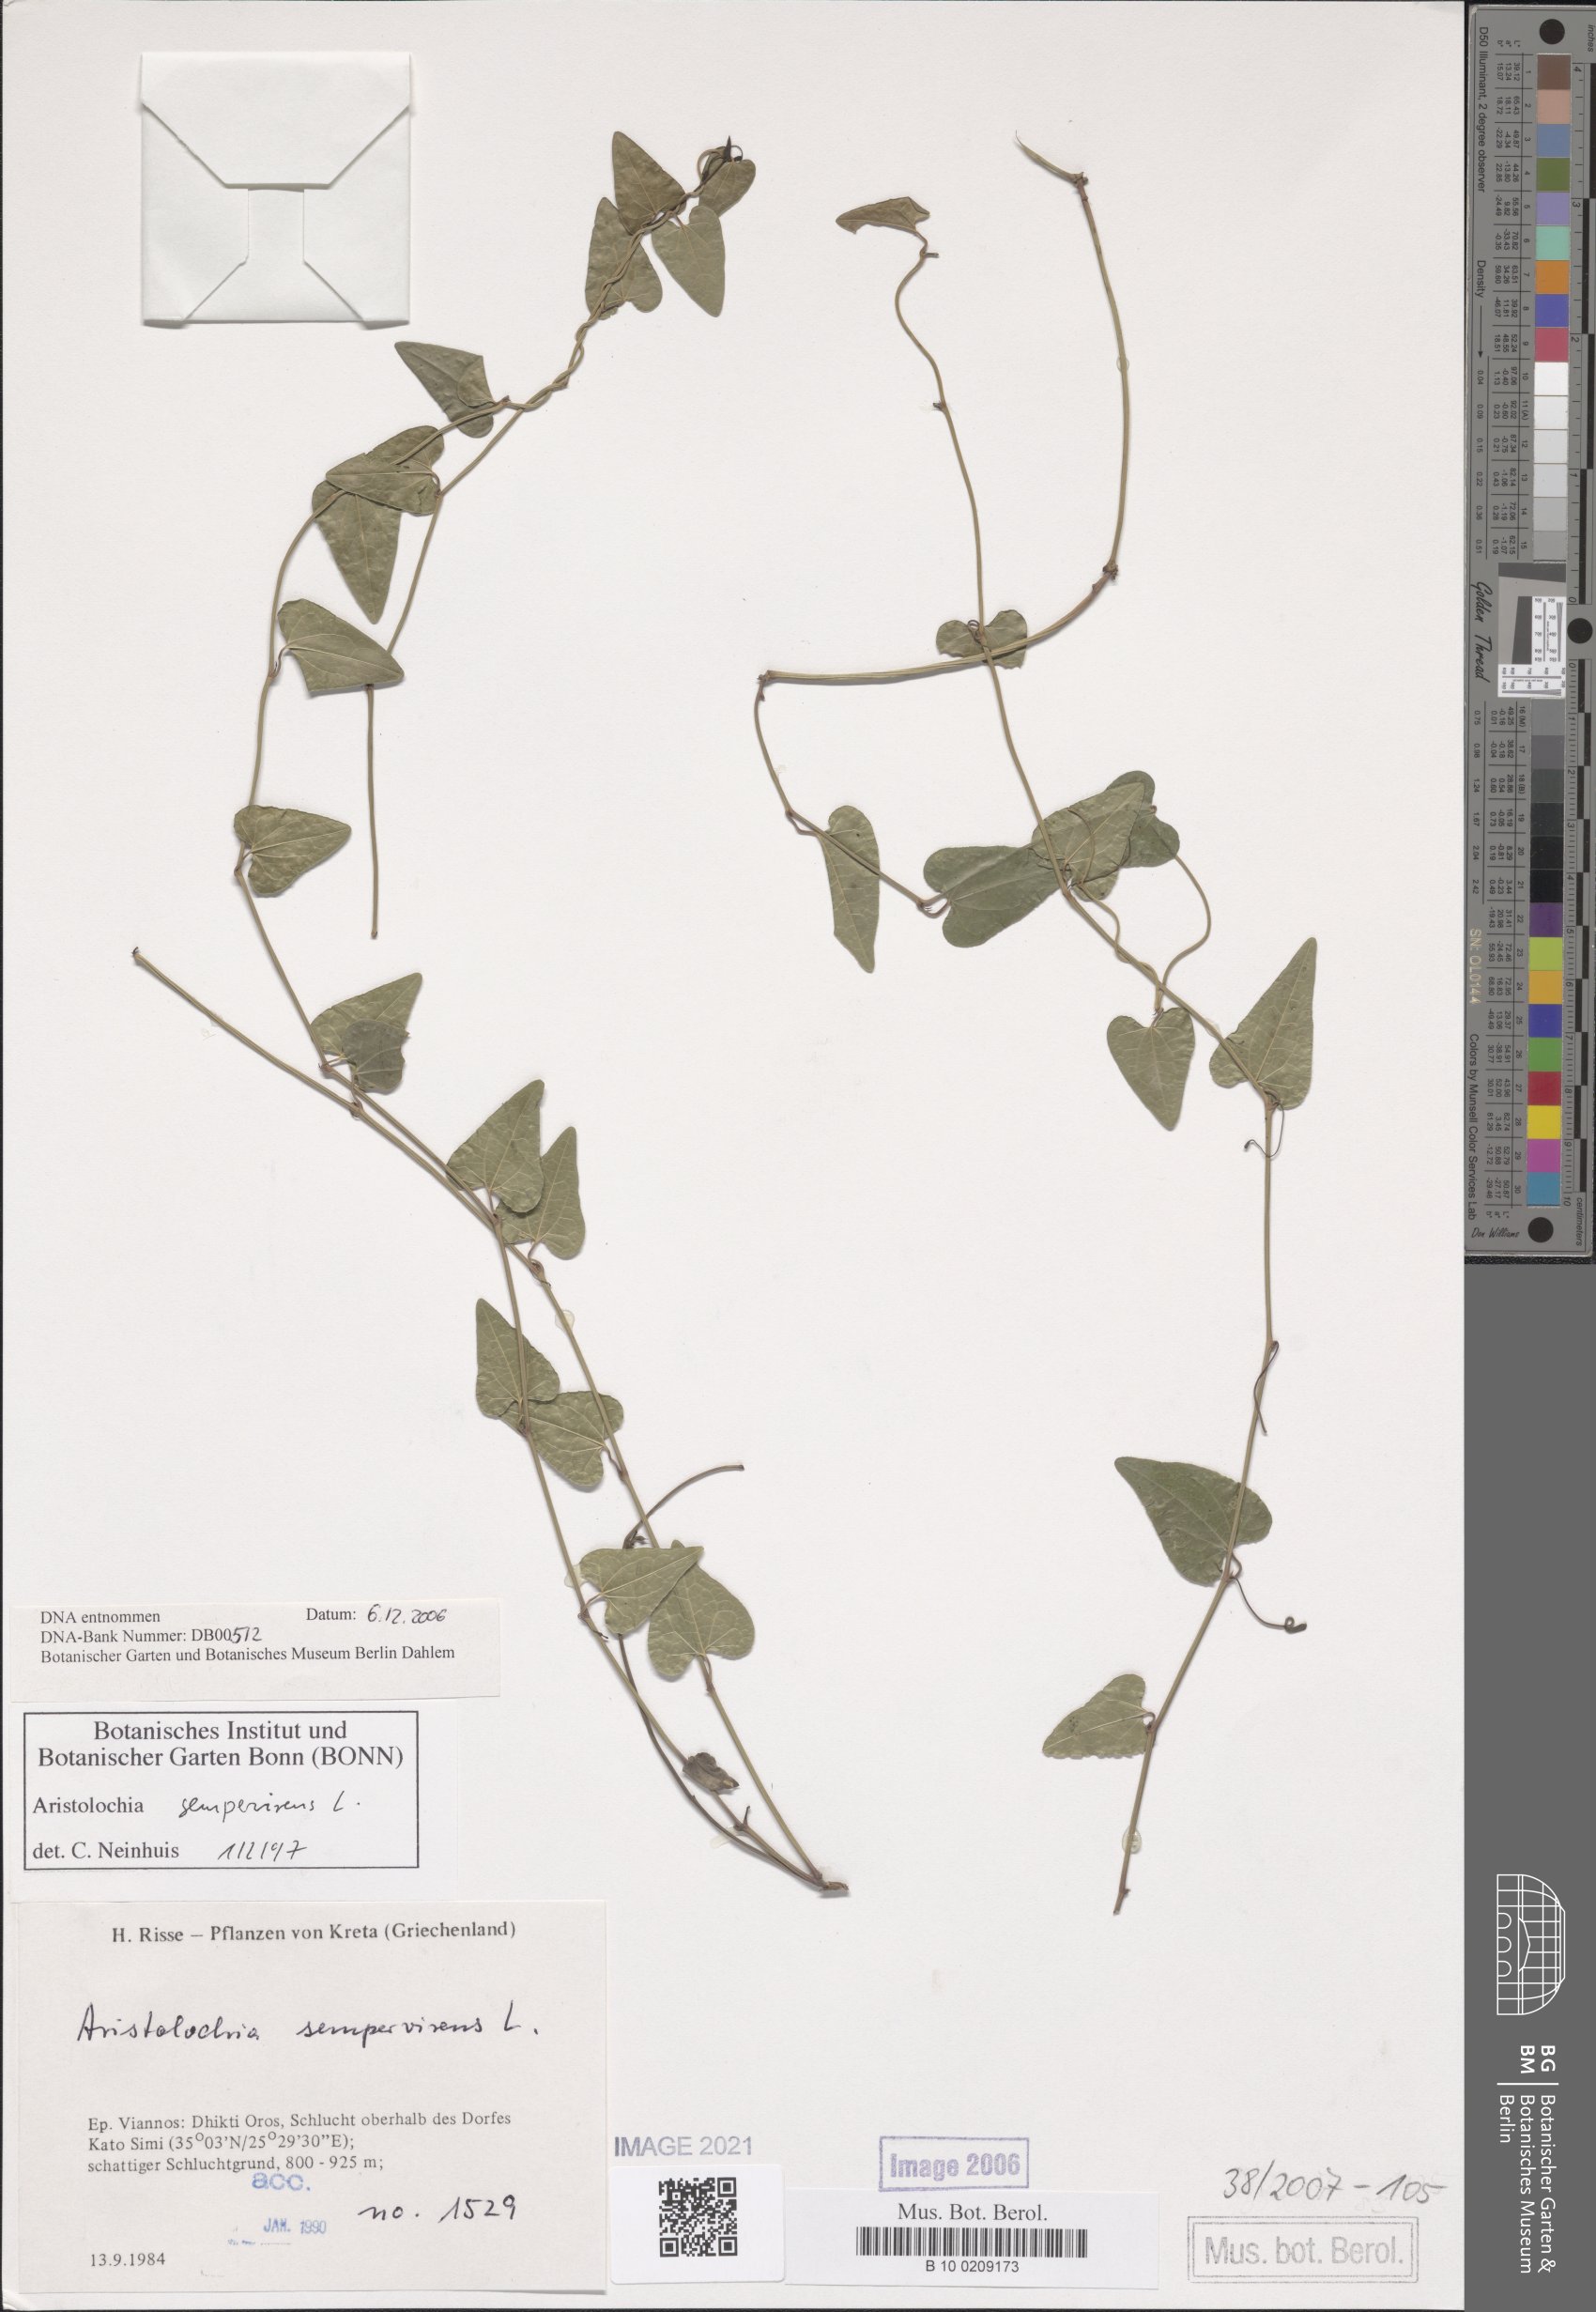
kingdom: Plantae
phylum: Tracheophyta
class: Magnoliopsida
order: Piperales
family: Aristolochiaceae
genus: Aristolochia
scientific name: Aristolochia sempervirens
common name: Long birthwort
